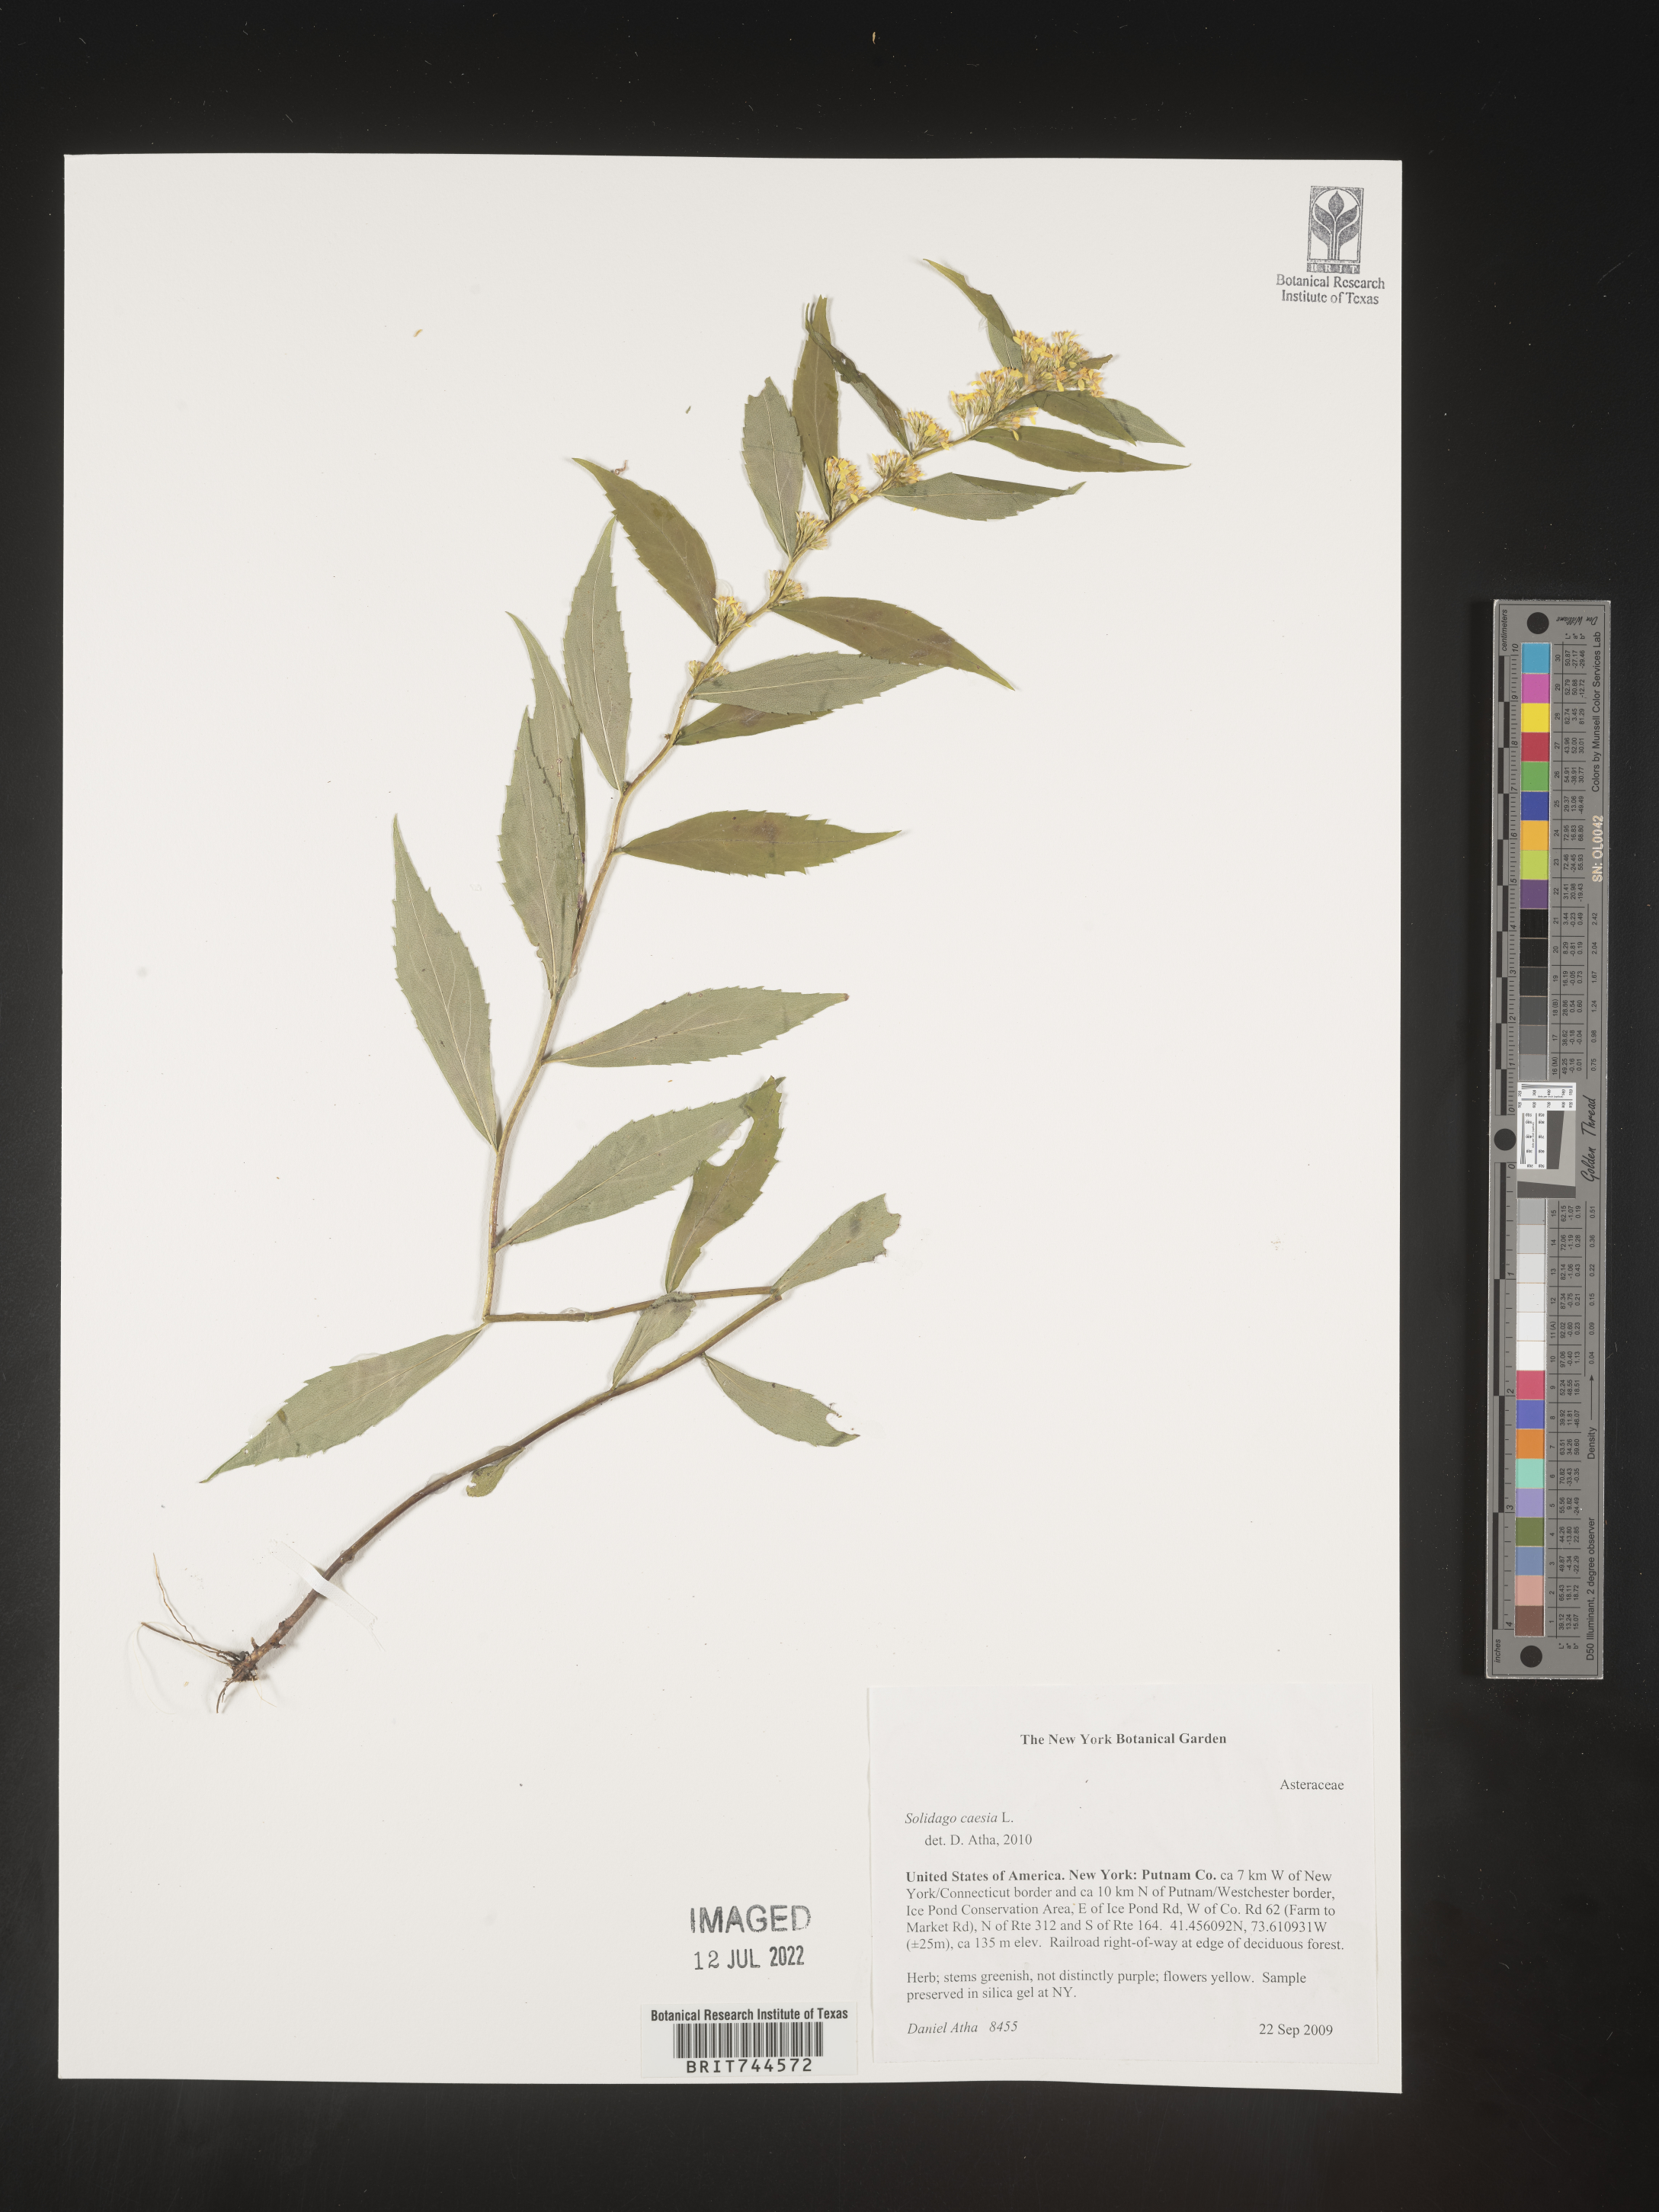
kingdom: Plantae
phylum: Tracheophyta
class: Magnoliopsida
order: Asterales
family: Asteraceae
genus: Solidago
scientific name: Solidago caesia
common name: Woodland goldenrod
